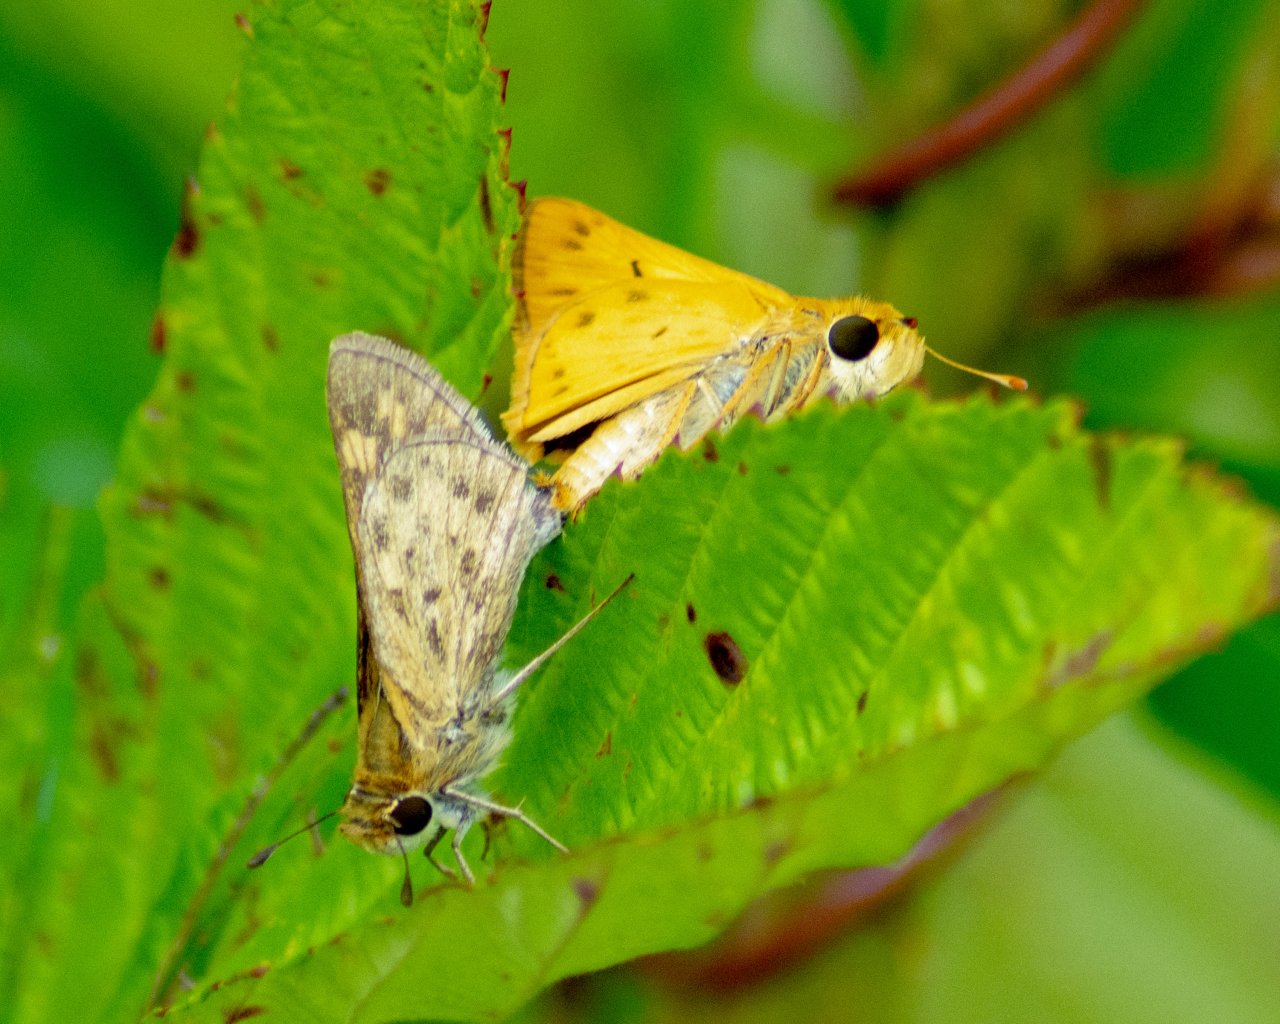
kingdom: Animalia
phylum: Arthropoda
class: Insecta
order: Lepidoptera
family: Hesperiidae
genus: Hylephila
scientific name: Hylephila phyleus
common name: Fiery Skipper
